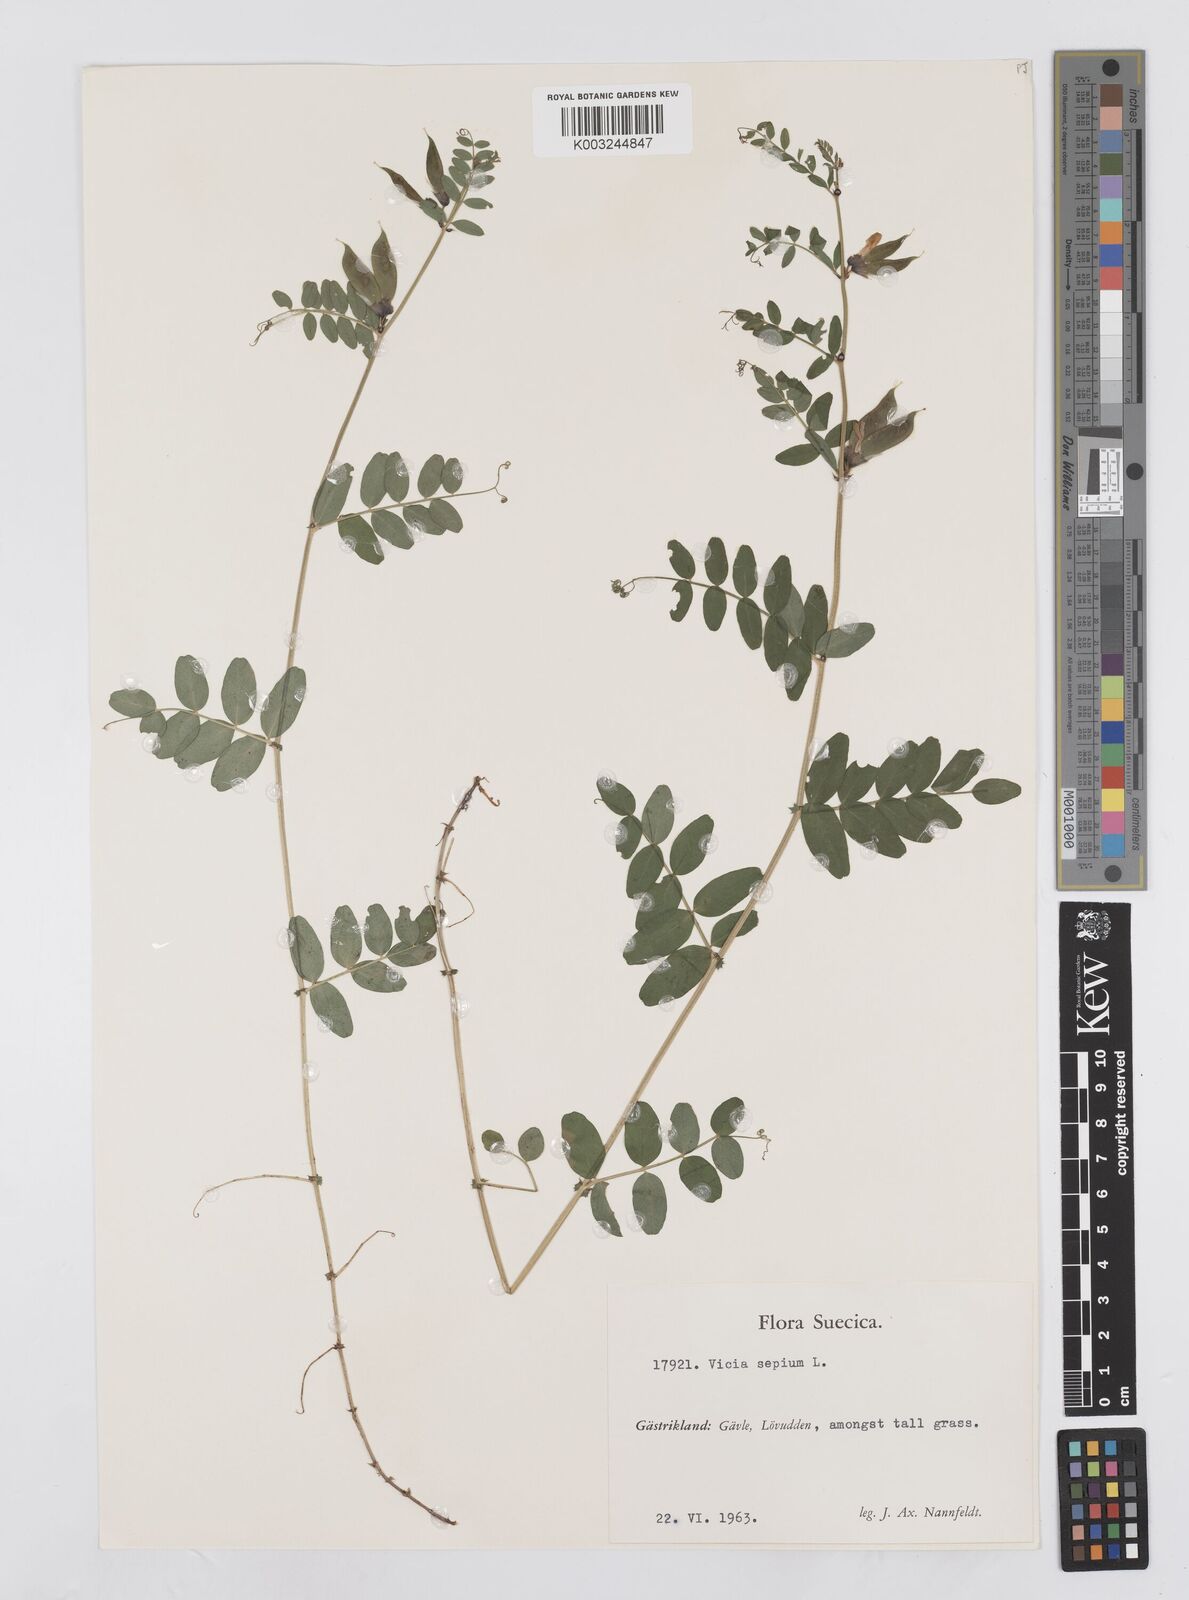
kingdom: Plantae
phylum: Tracheophyta
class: Magnoliopsida
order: Fabales
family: Fabaceae
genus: Vicia
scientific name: Vicia sepium
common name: Bush vetch
